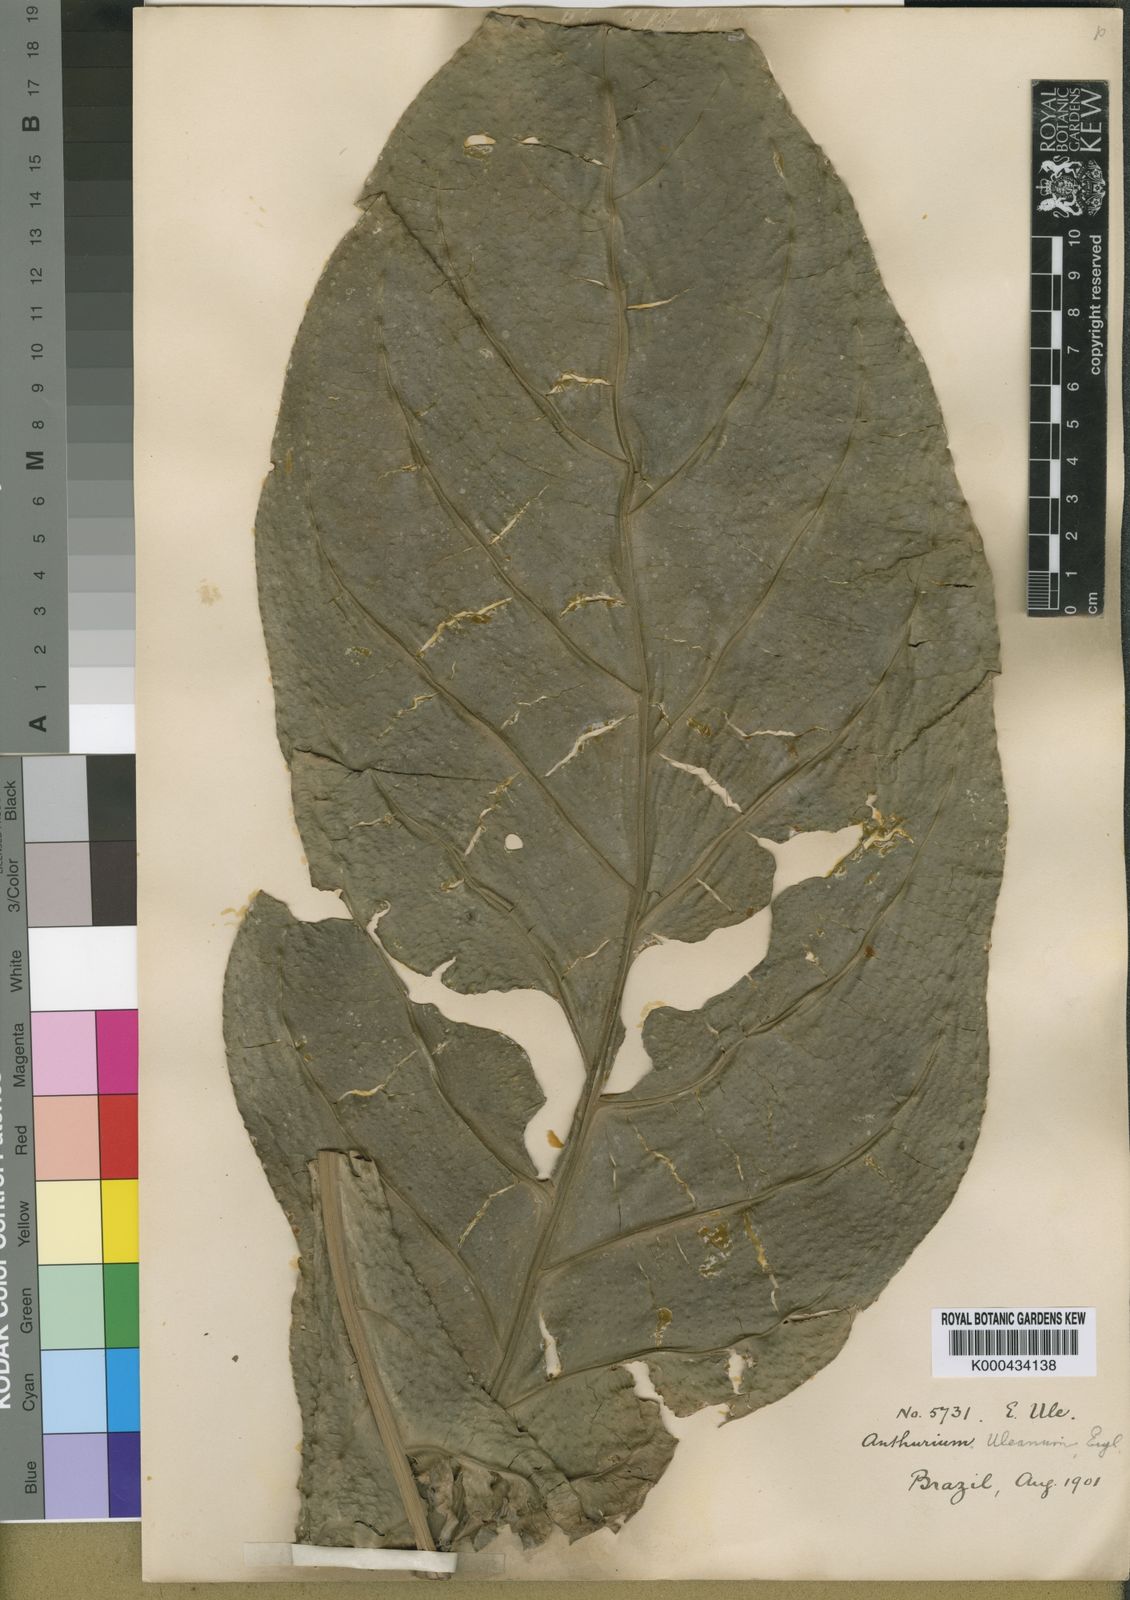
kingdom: Plantae
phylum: Tracheophyta
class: Liliopsida
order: Alismatales
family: Araceae
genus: Anthurium
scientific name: Anthurium uleanum
